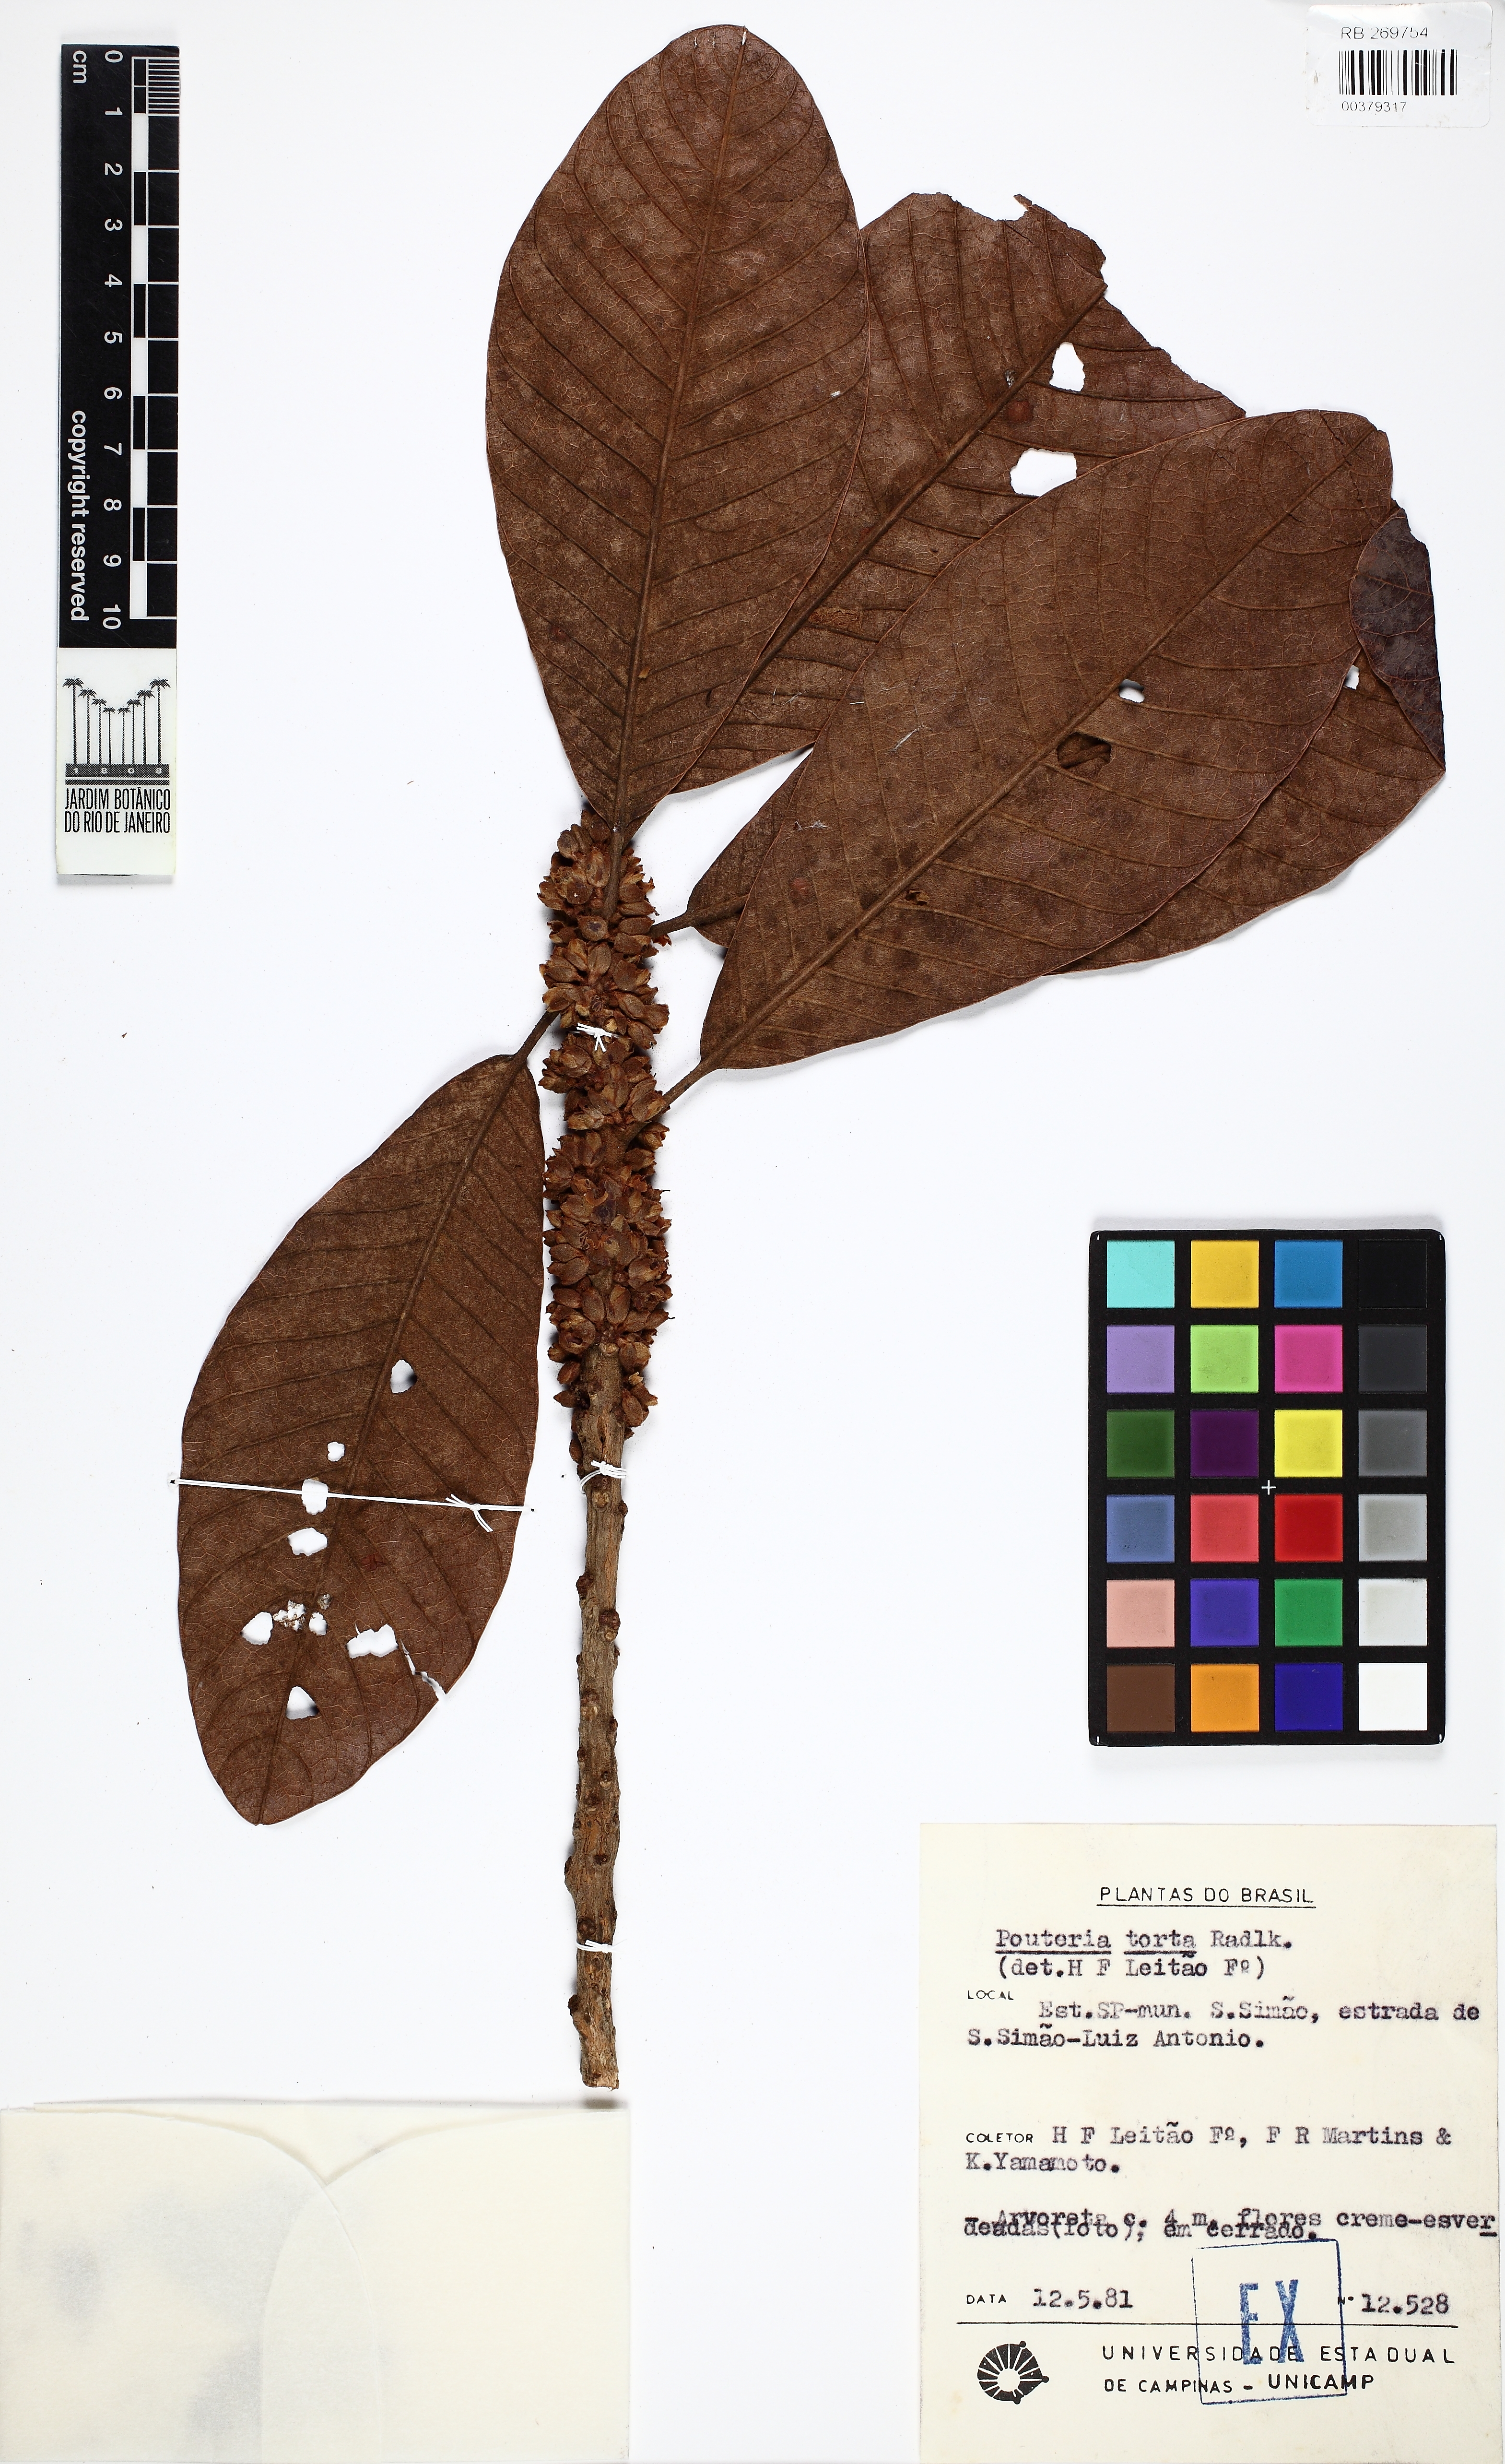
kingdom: Plantae
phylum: Tracheophyta
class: Magnoliopsida
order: Ericales
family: Sapotaceae
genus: Pouteria
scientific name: Pouteria torta
